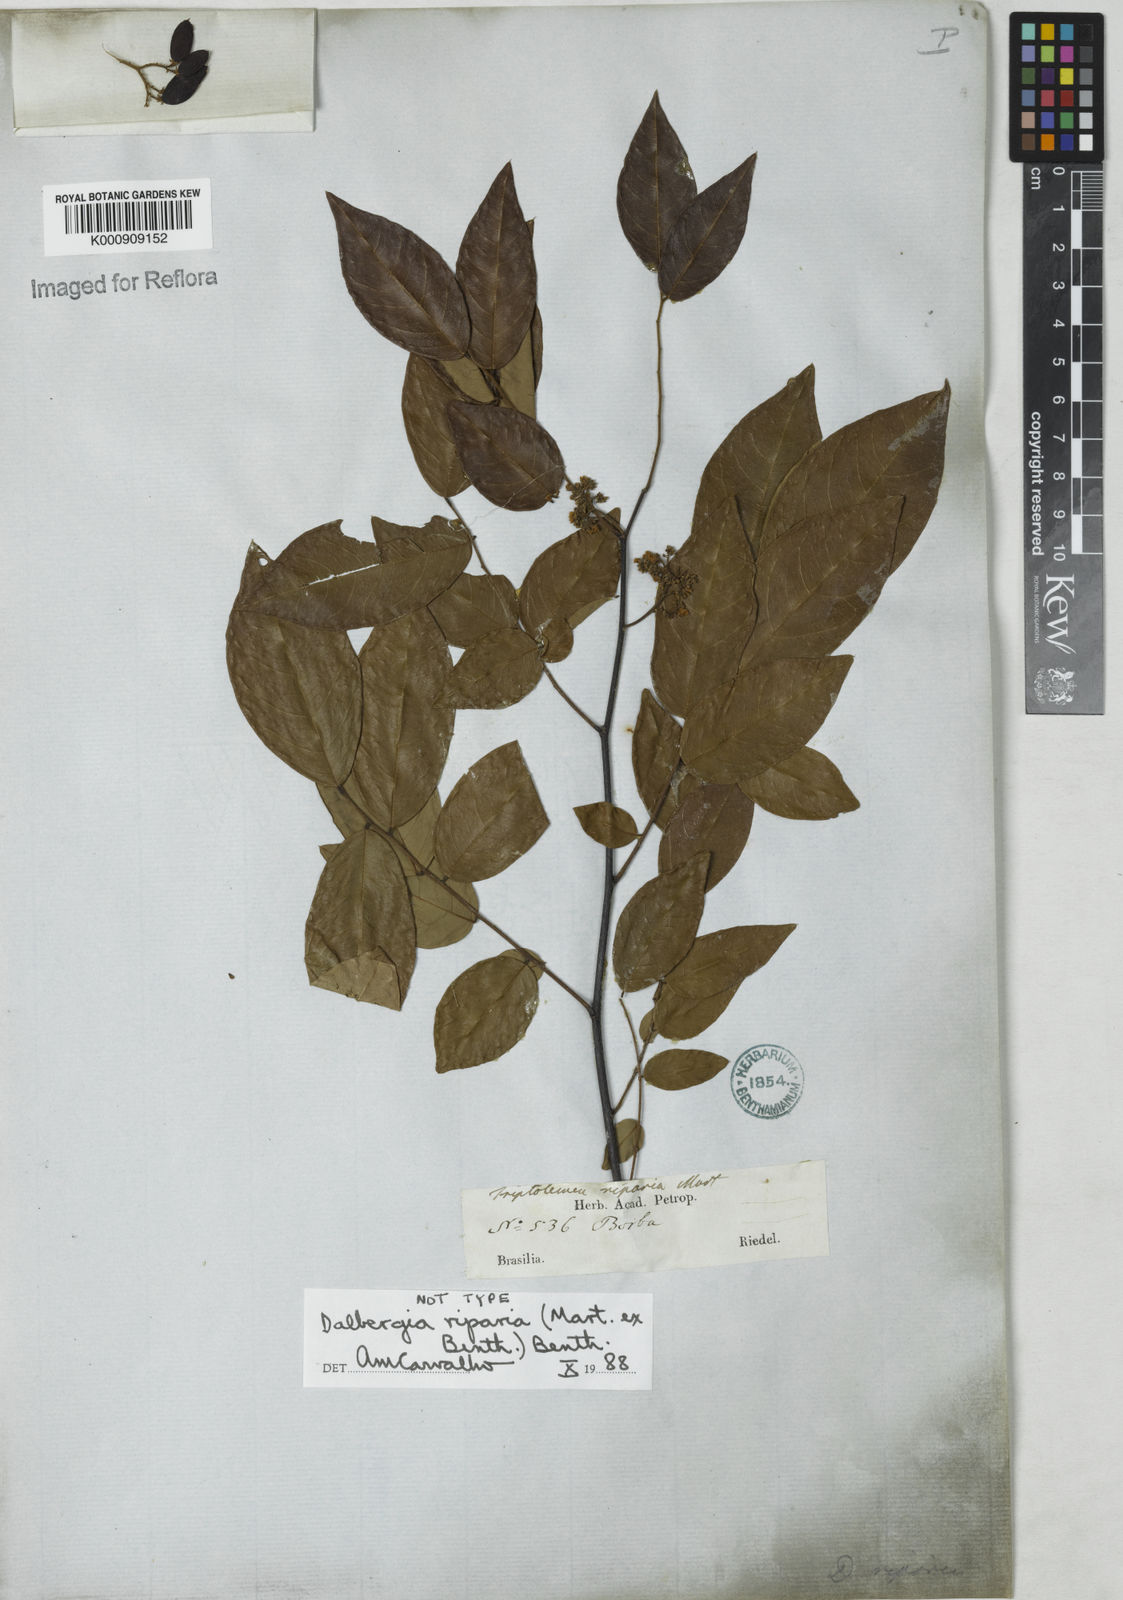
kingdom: Plantae
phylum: Tracheophyta
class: Magnoliopsida
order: Fabales
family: Fabaceae
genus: Dalbergia
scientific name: Dalbergia riparia
